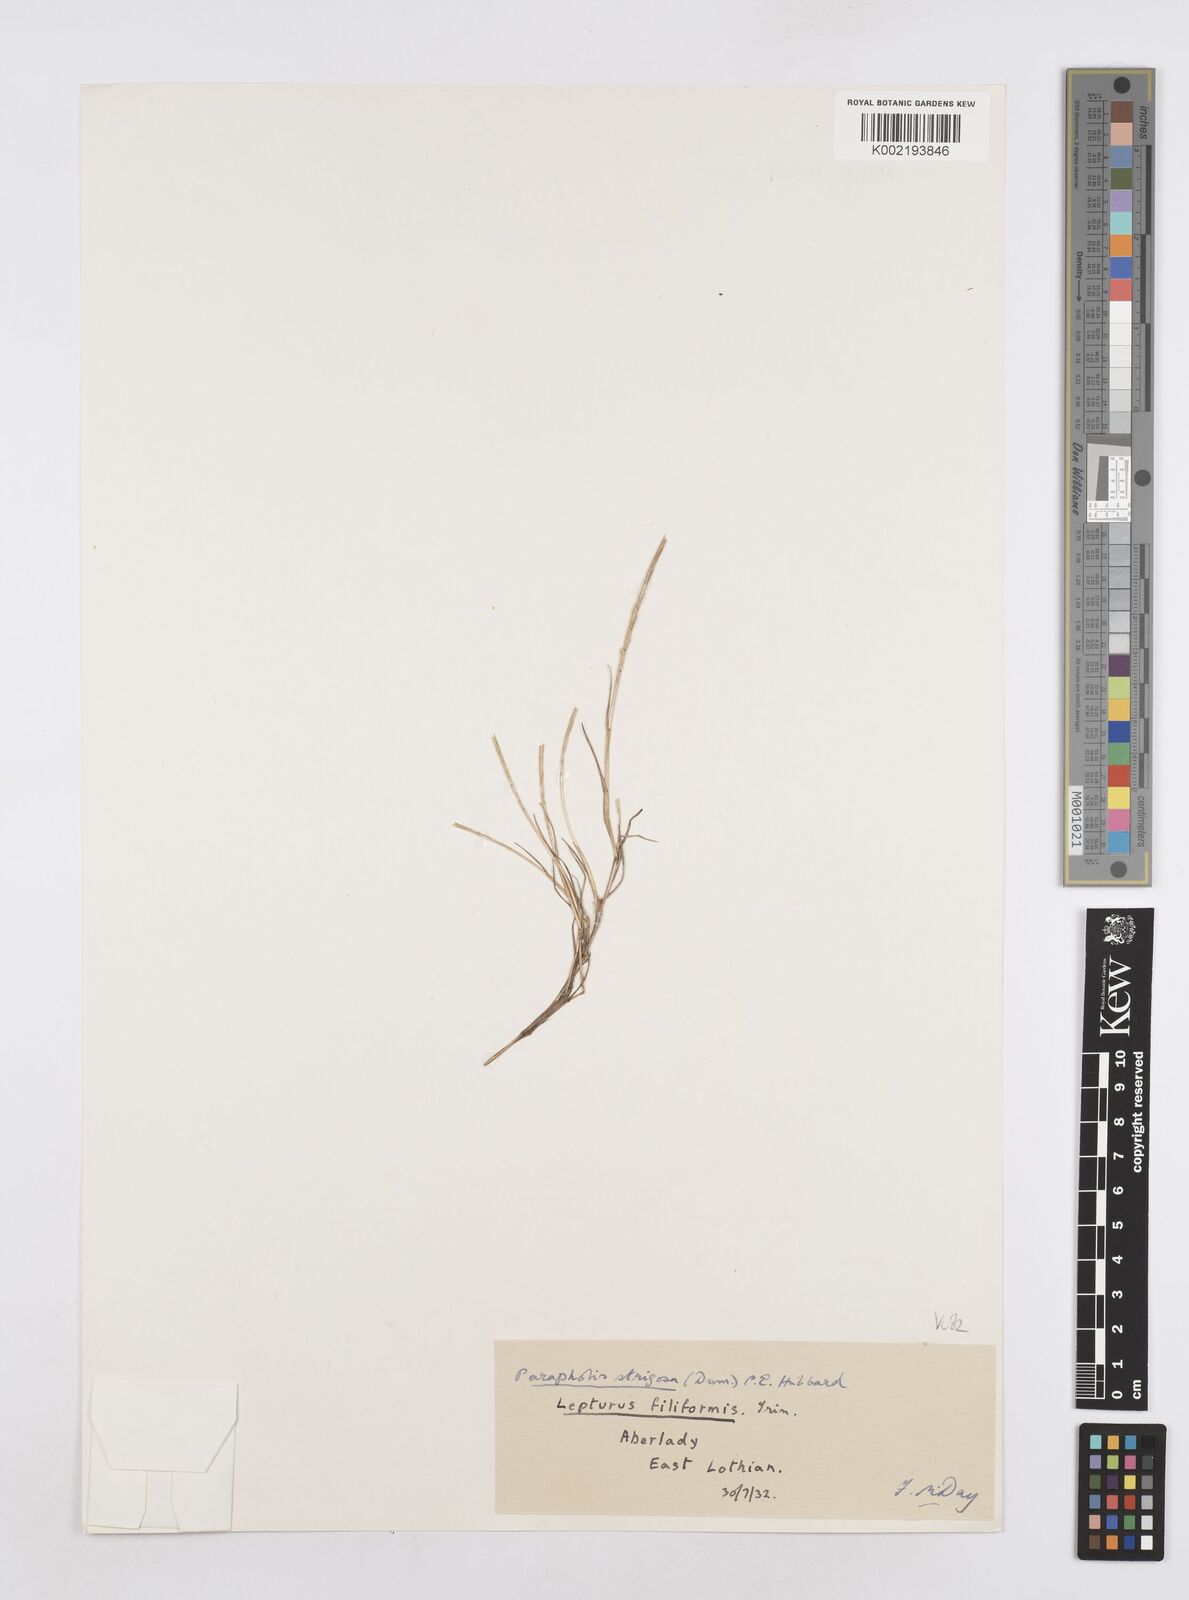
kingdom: Plantae
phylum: Tracheophyta
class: Liliopsida
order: Poales
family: Poaceae
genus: Parapholis
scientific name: Parapholis strigosa
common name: Hard-grass
